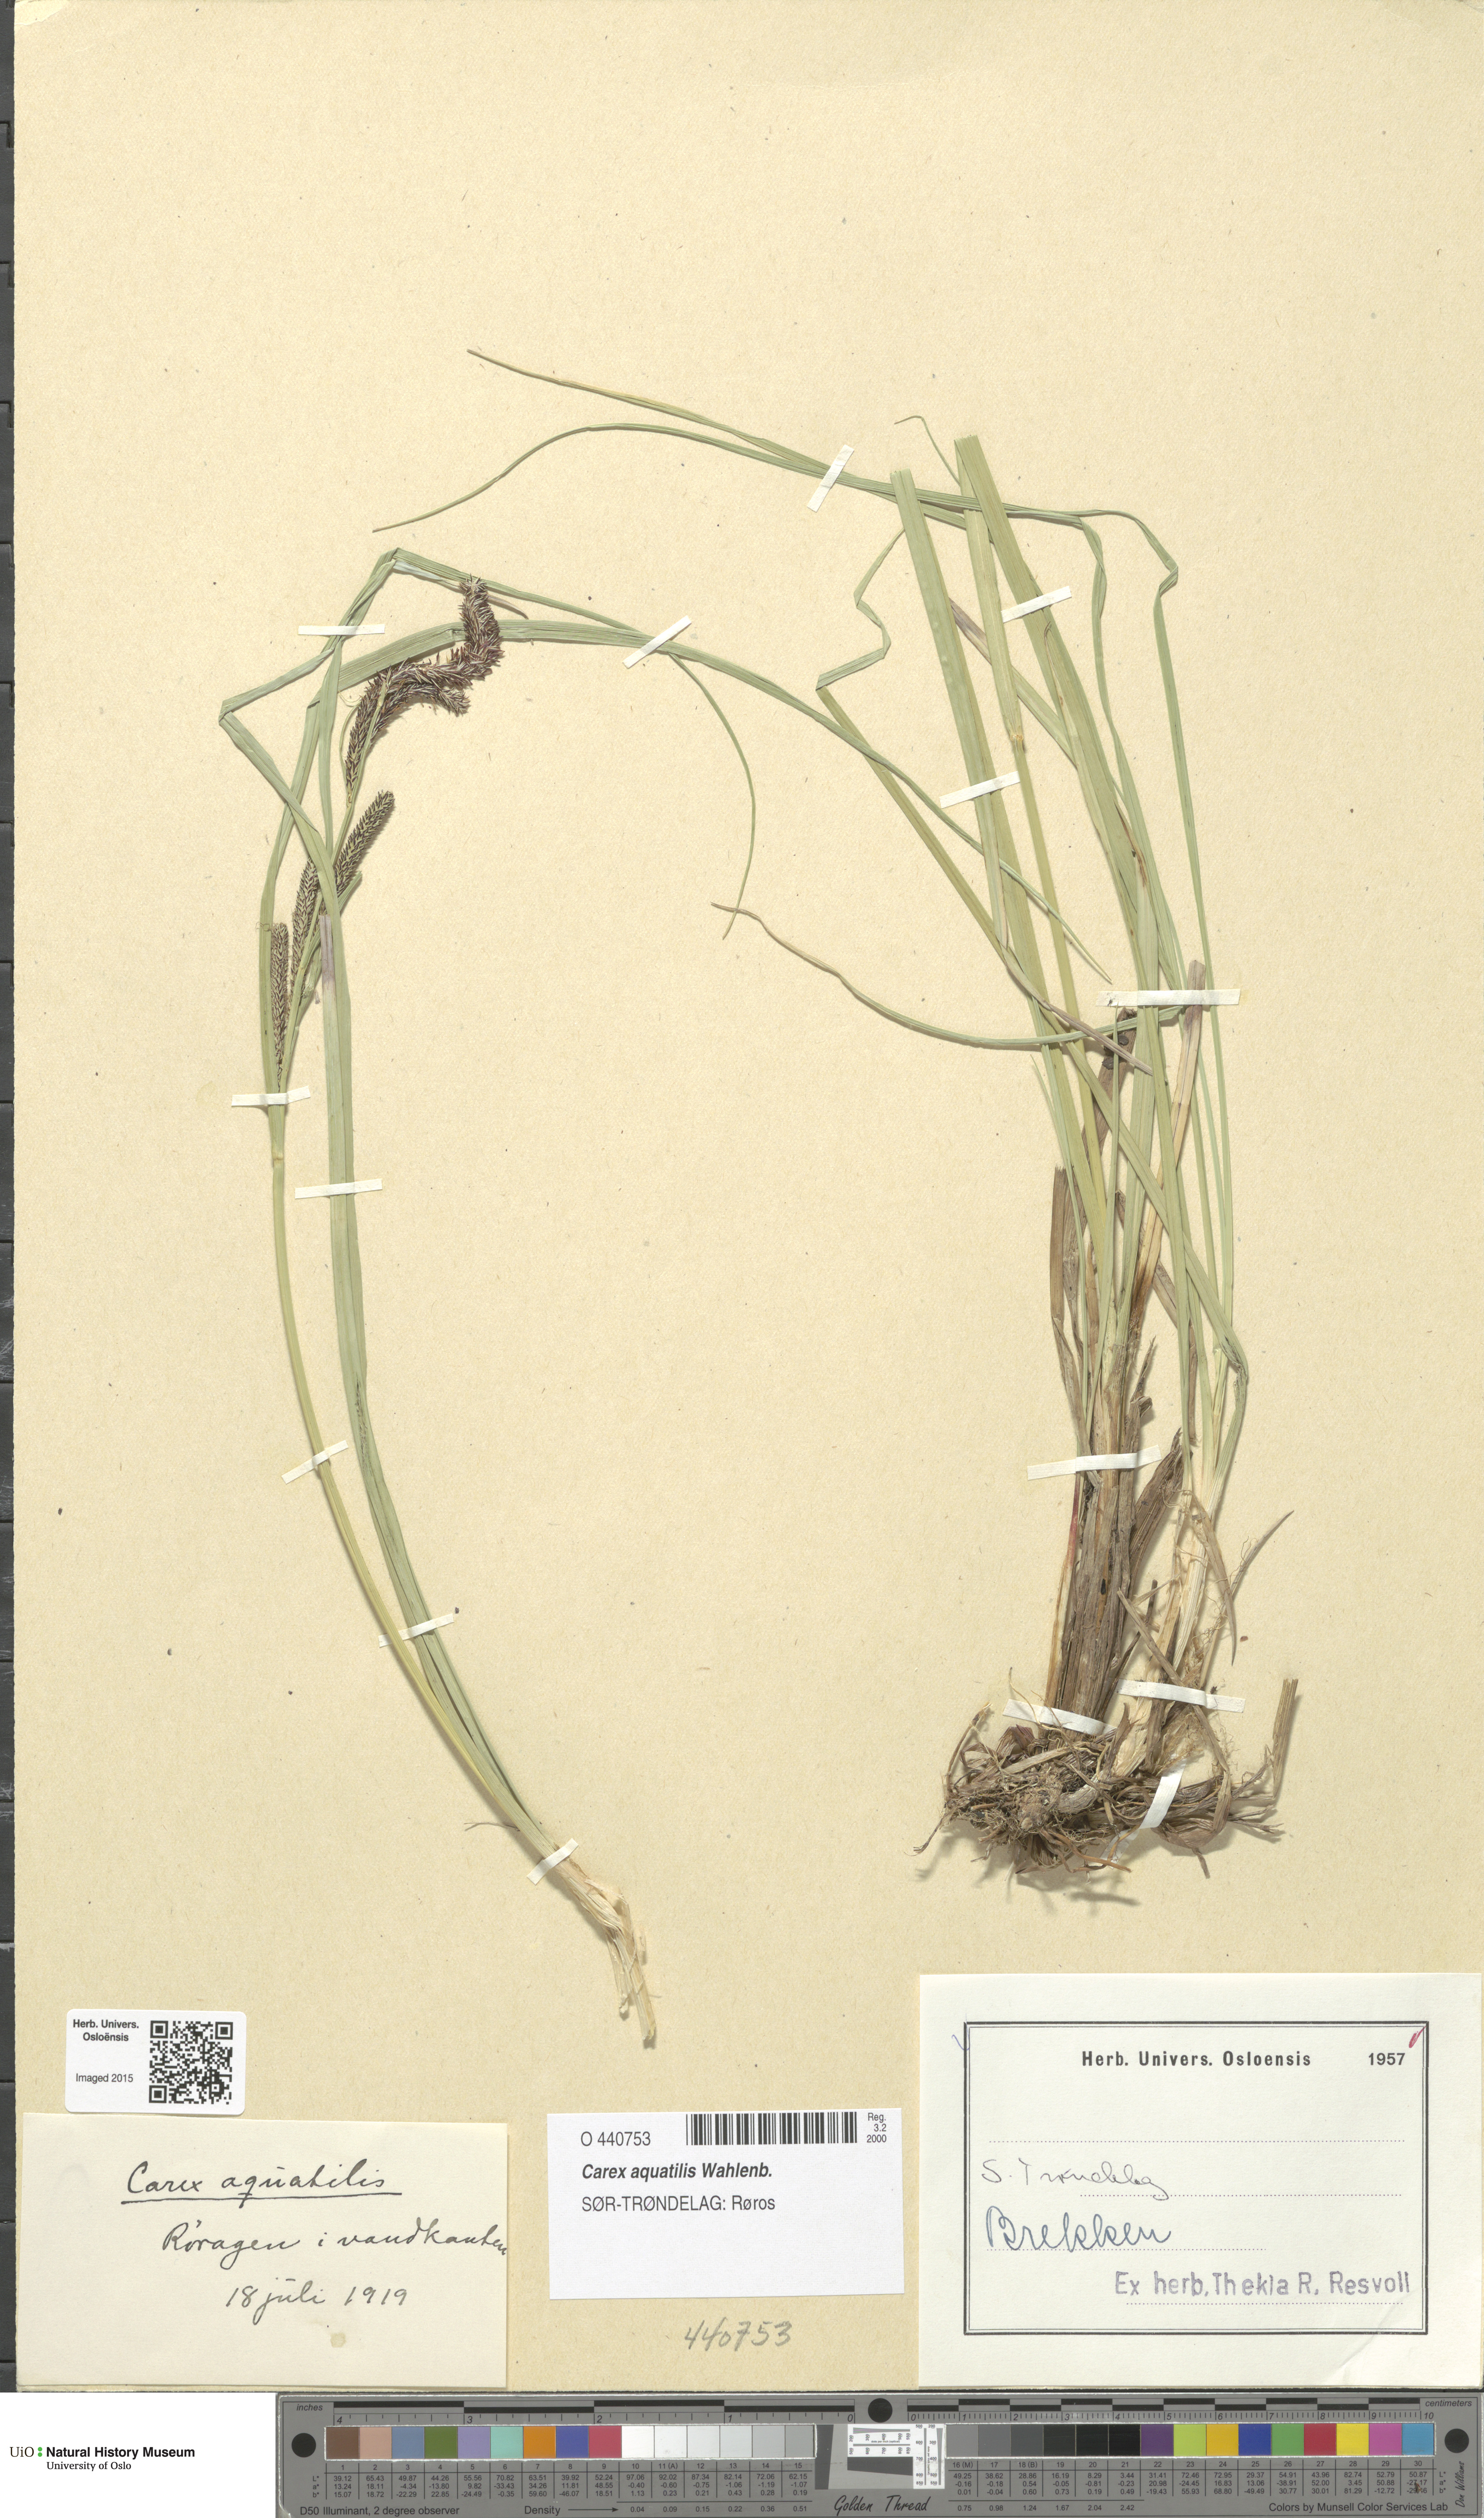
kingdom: Plantae
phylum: Tracheophyta
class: Liliopsida
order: Poales
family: Cyperaceae
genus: Carex
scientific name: Carex aquatilis
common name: Water sedge
